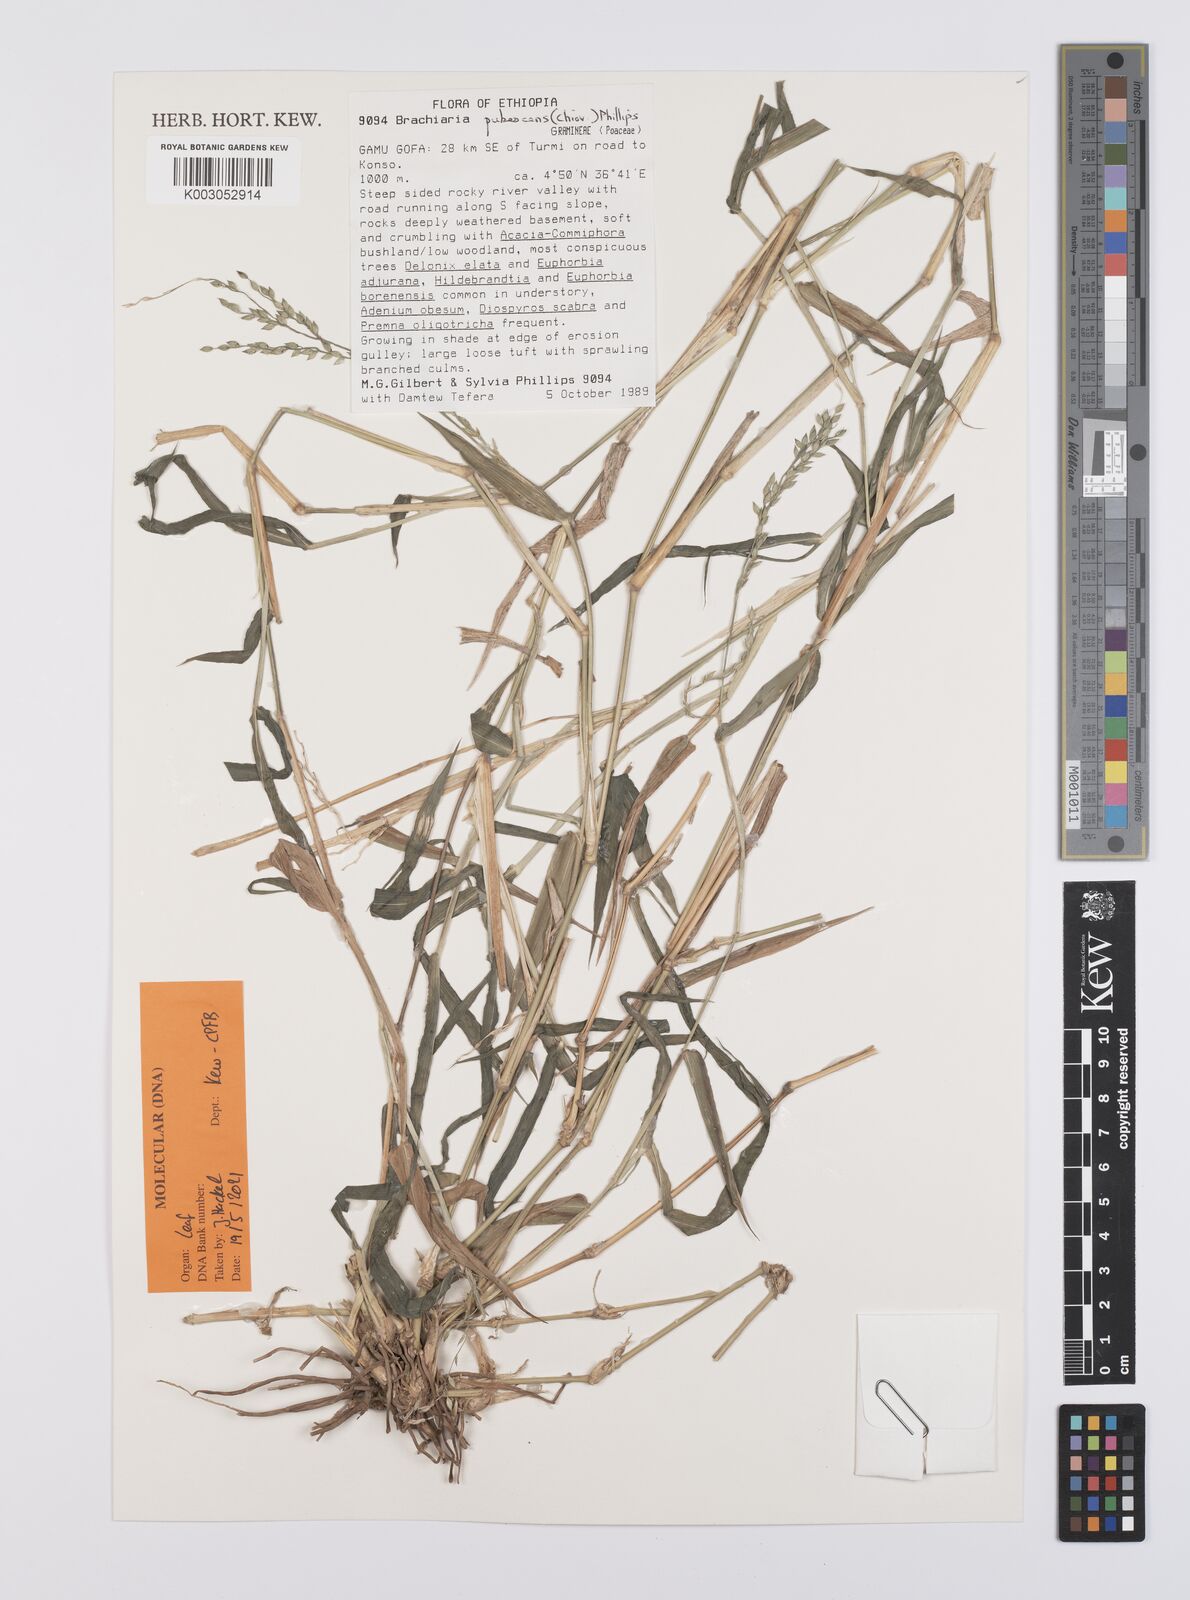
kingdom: Plantae
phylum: Tracheophyta
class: Liliopsida
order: Poales
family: Poaceae
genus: Urochloa
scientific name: Urochloa Brachiaria pubescens
